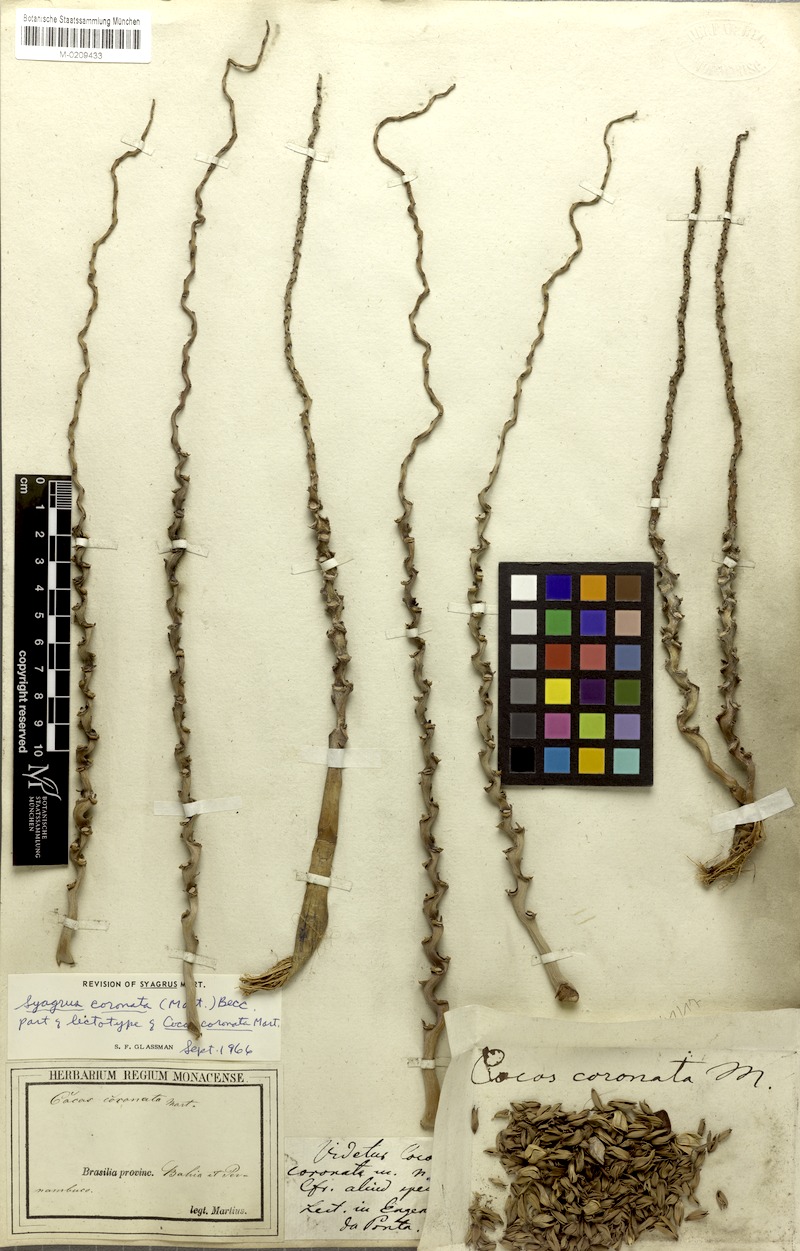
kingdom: Plantae
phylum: Tracheophyta
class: Liliopsida
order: Arecales
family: Arecaceae
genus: Syagrus
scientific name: Syagrus coronata
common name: Licuri palm
